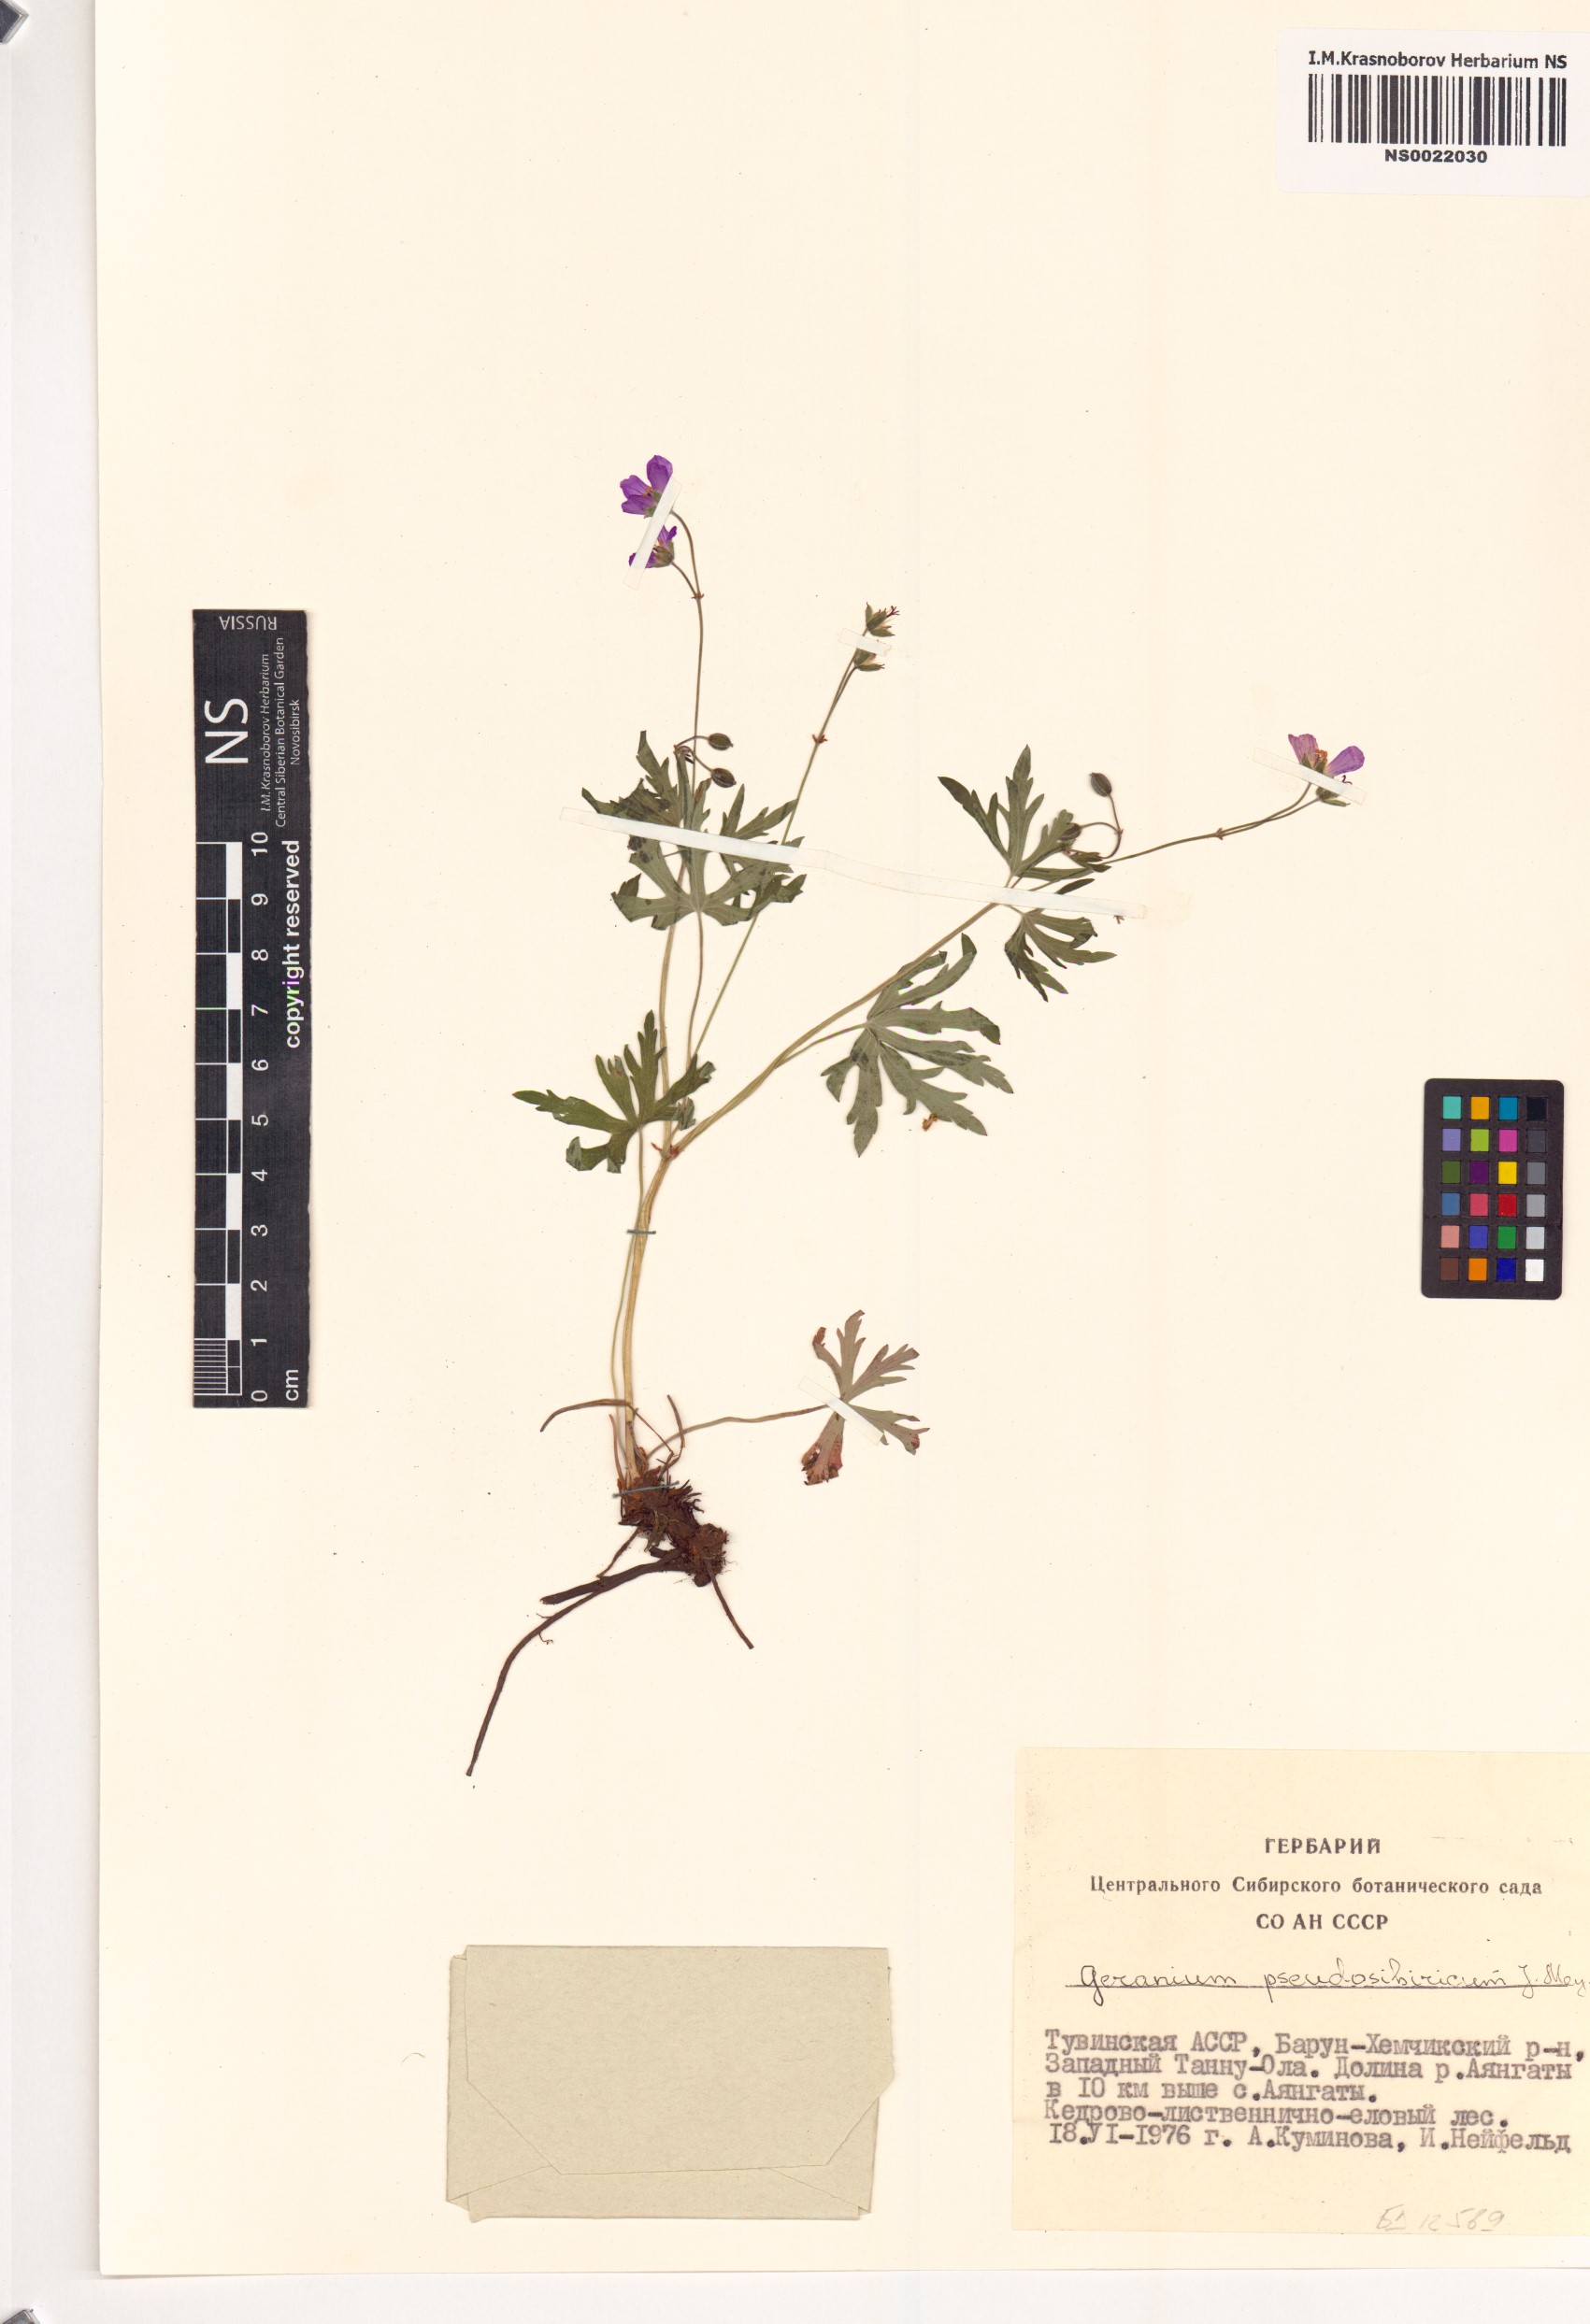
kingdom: Plantae
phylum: Tracheophyta
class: Magnoliopsida
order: Geraniales
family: Geraniaceae
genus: Geranium
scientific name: Geranium pseudosibiricum
